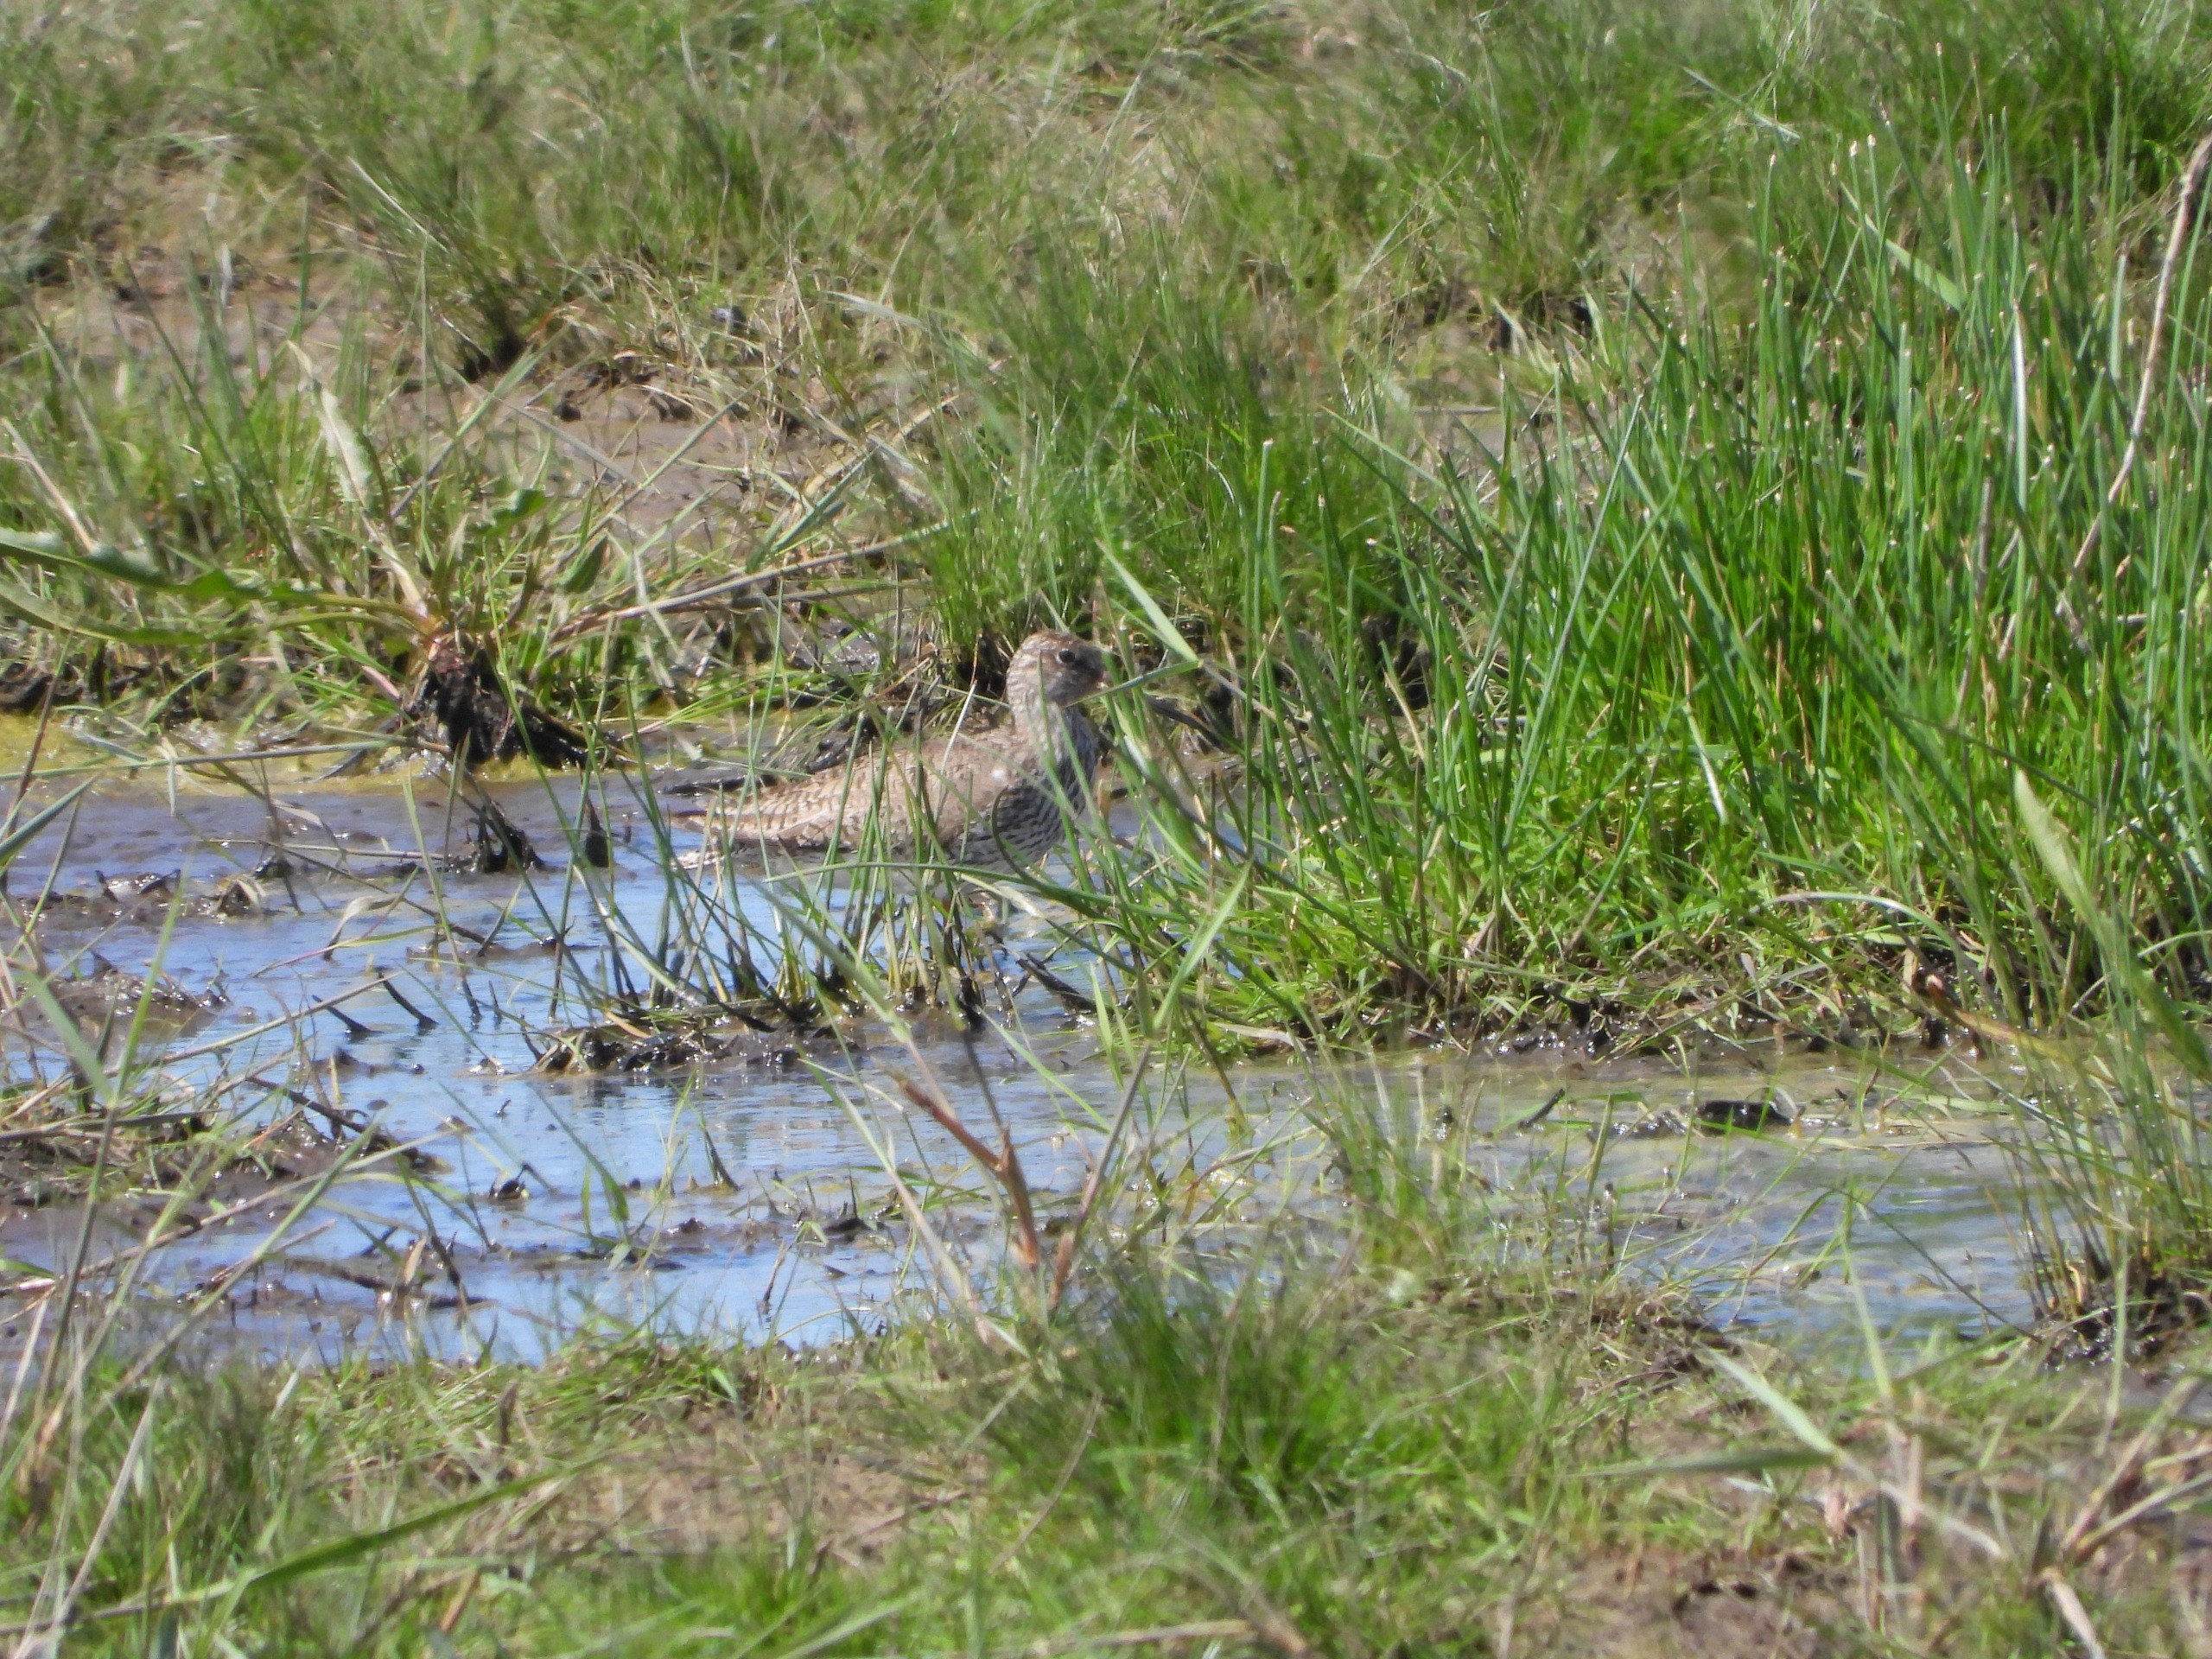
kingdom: Animalia
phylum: Chordata
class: Aves
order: Charadriiformes
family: Scolopacidae
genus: Tringa
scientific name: Tringa totanus
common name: Rødben
